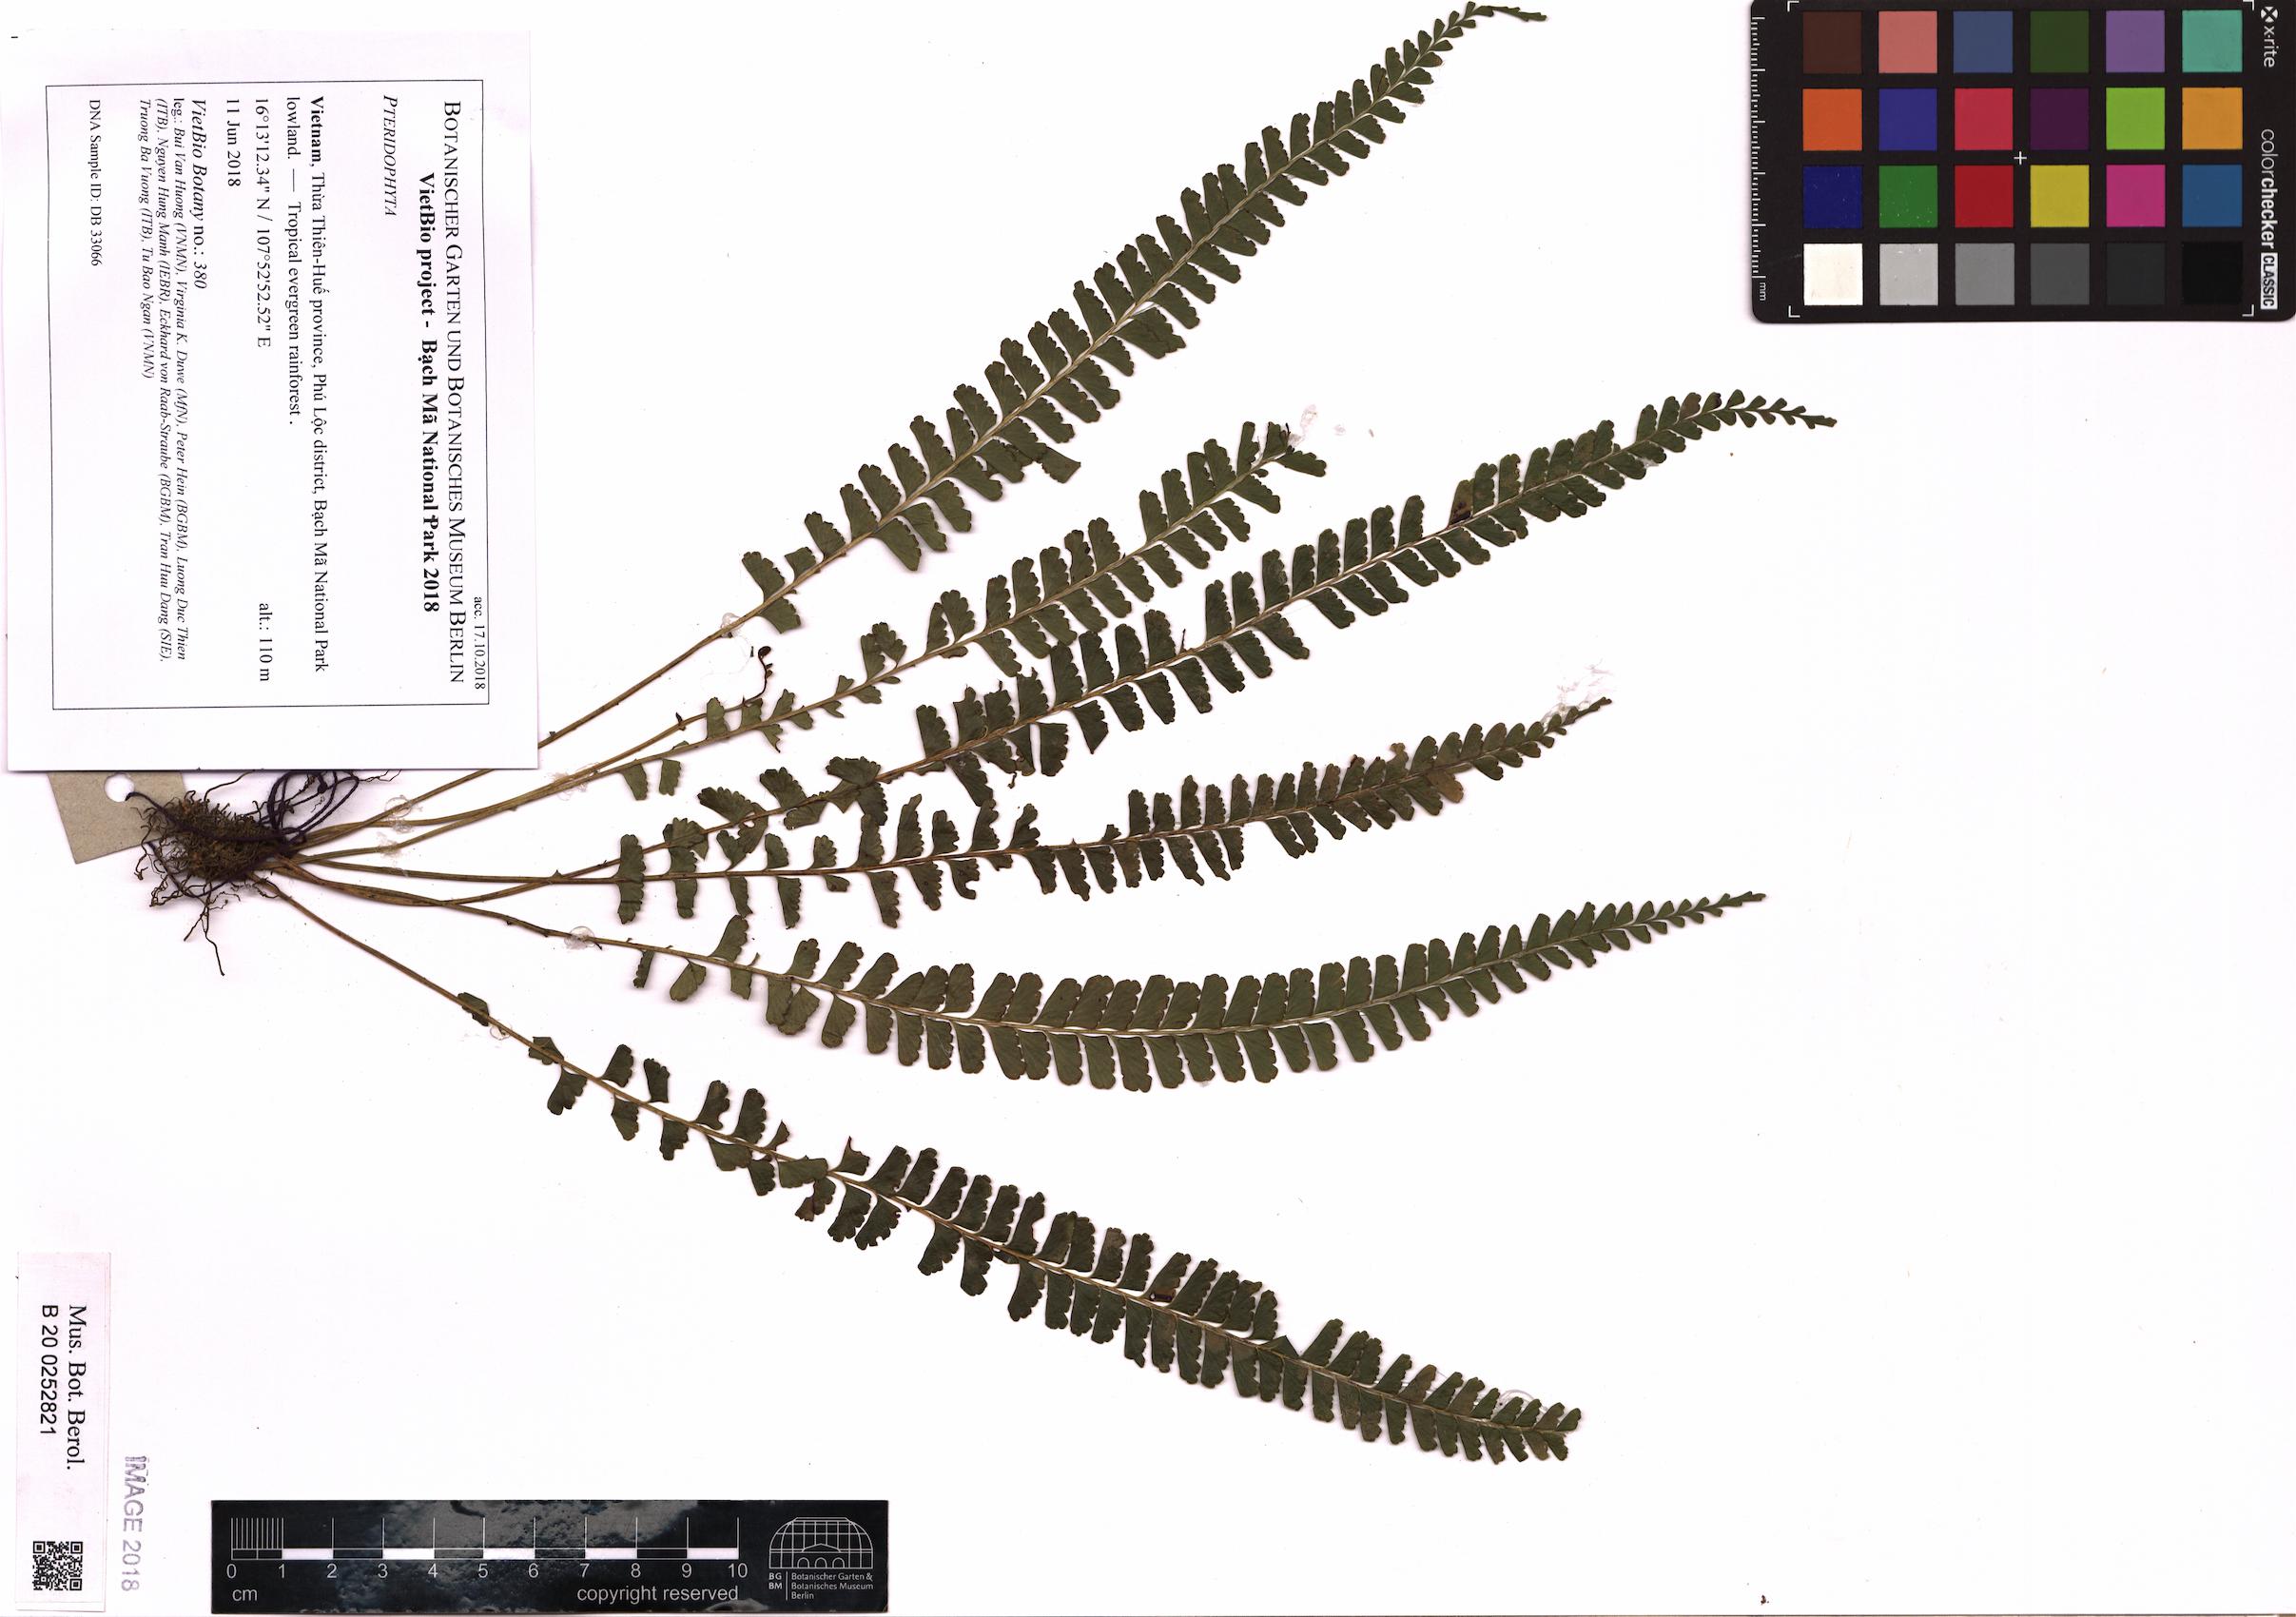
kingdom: Plantae
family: Pteridophyta
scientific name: Pteridophyta
